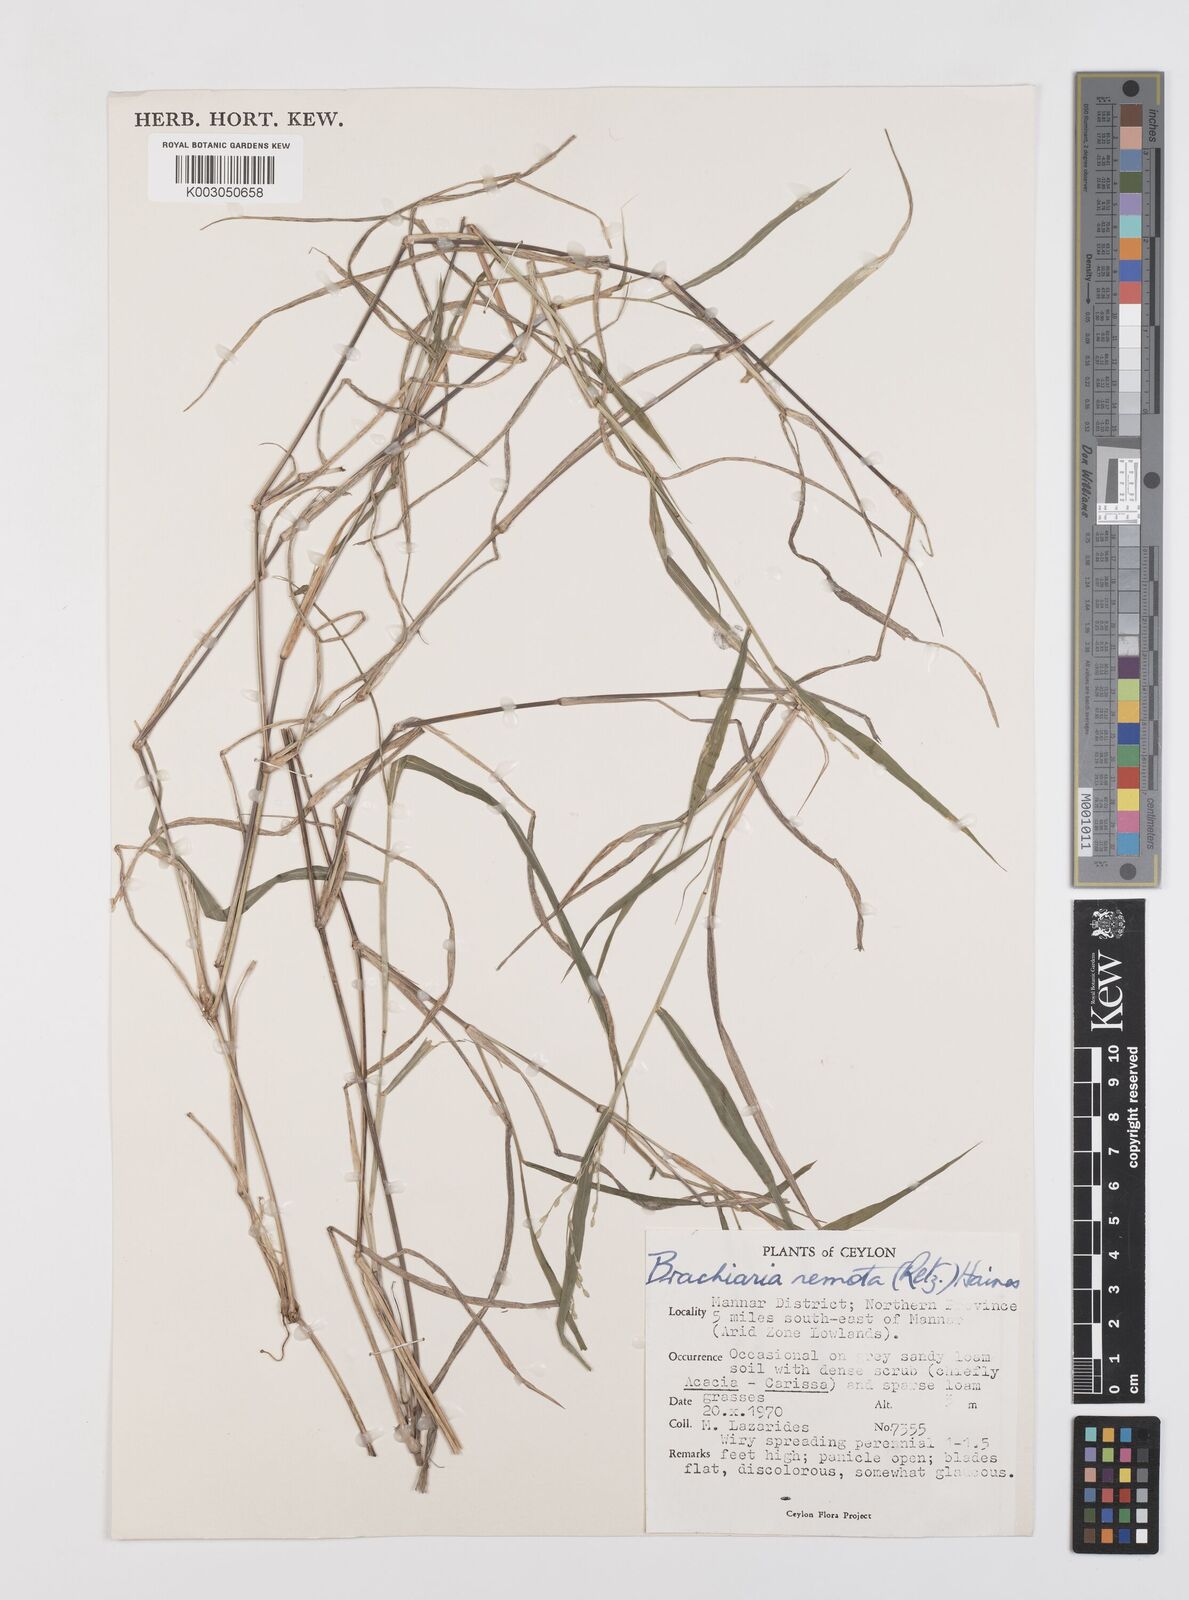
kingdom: Plantae
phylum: Tracheophyta
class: Liliopsida
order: Poales
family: Poaceae
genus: Urochloa
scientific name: Urochloa Brachiaria remota
